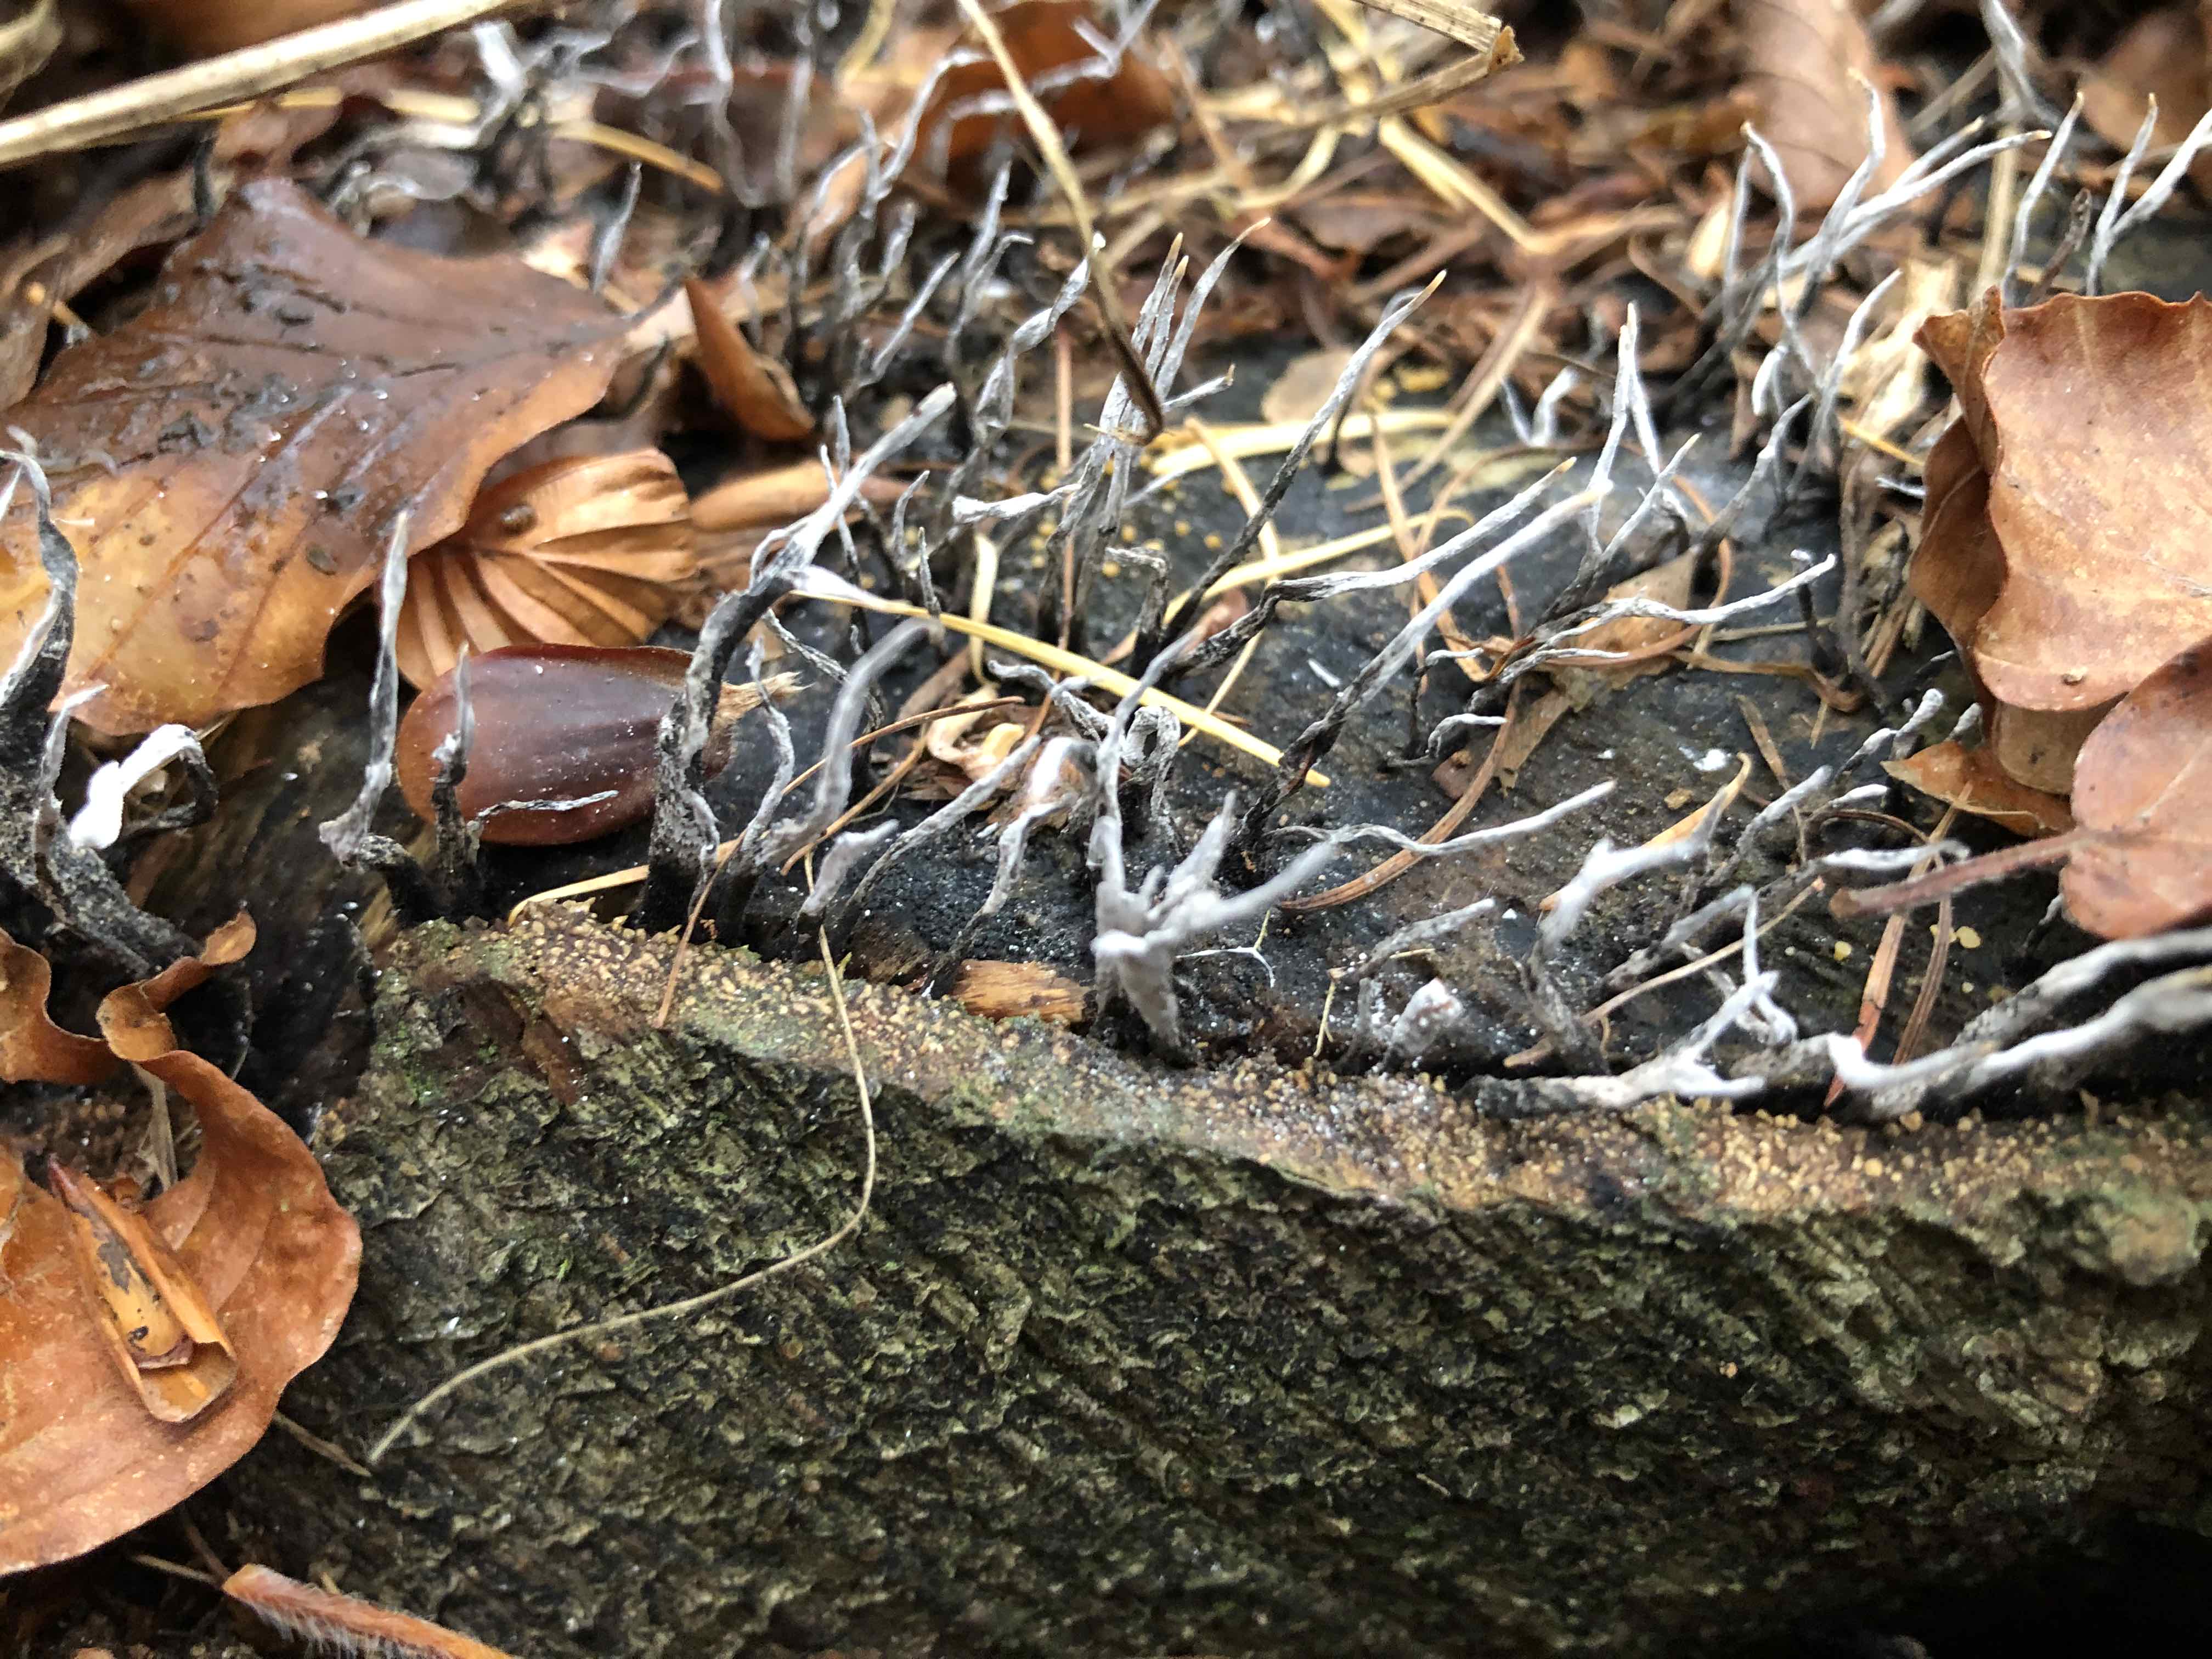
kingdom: Fungi
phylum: Ascomycota
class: Sordariomycetes
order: Xylariales
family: Xylariaceae
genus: Xylaria
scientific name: Xylaria hypoxylon
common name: grenet stødsvamp
